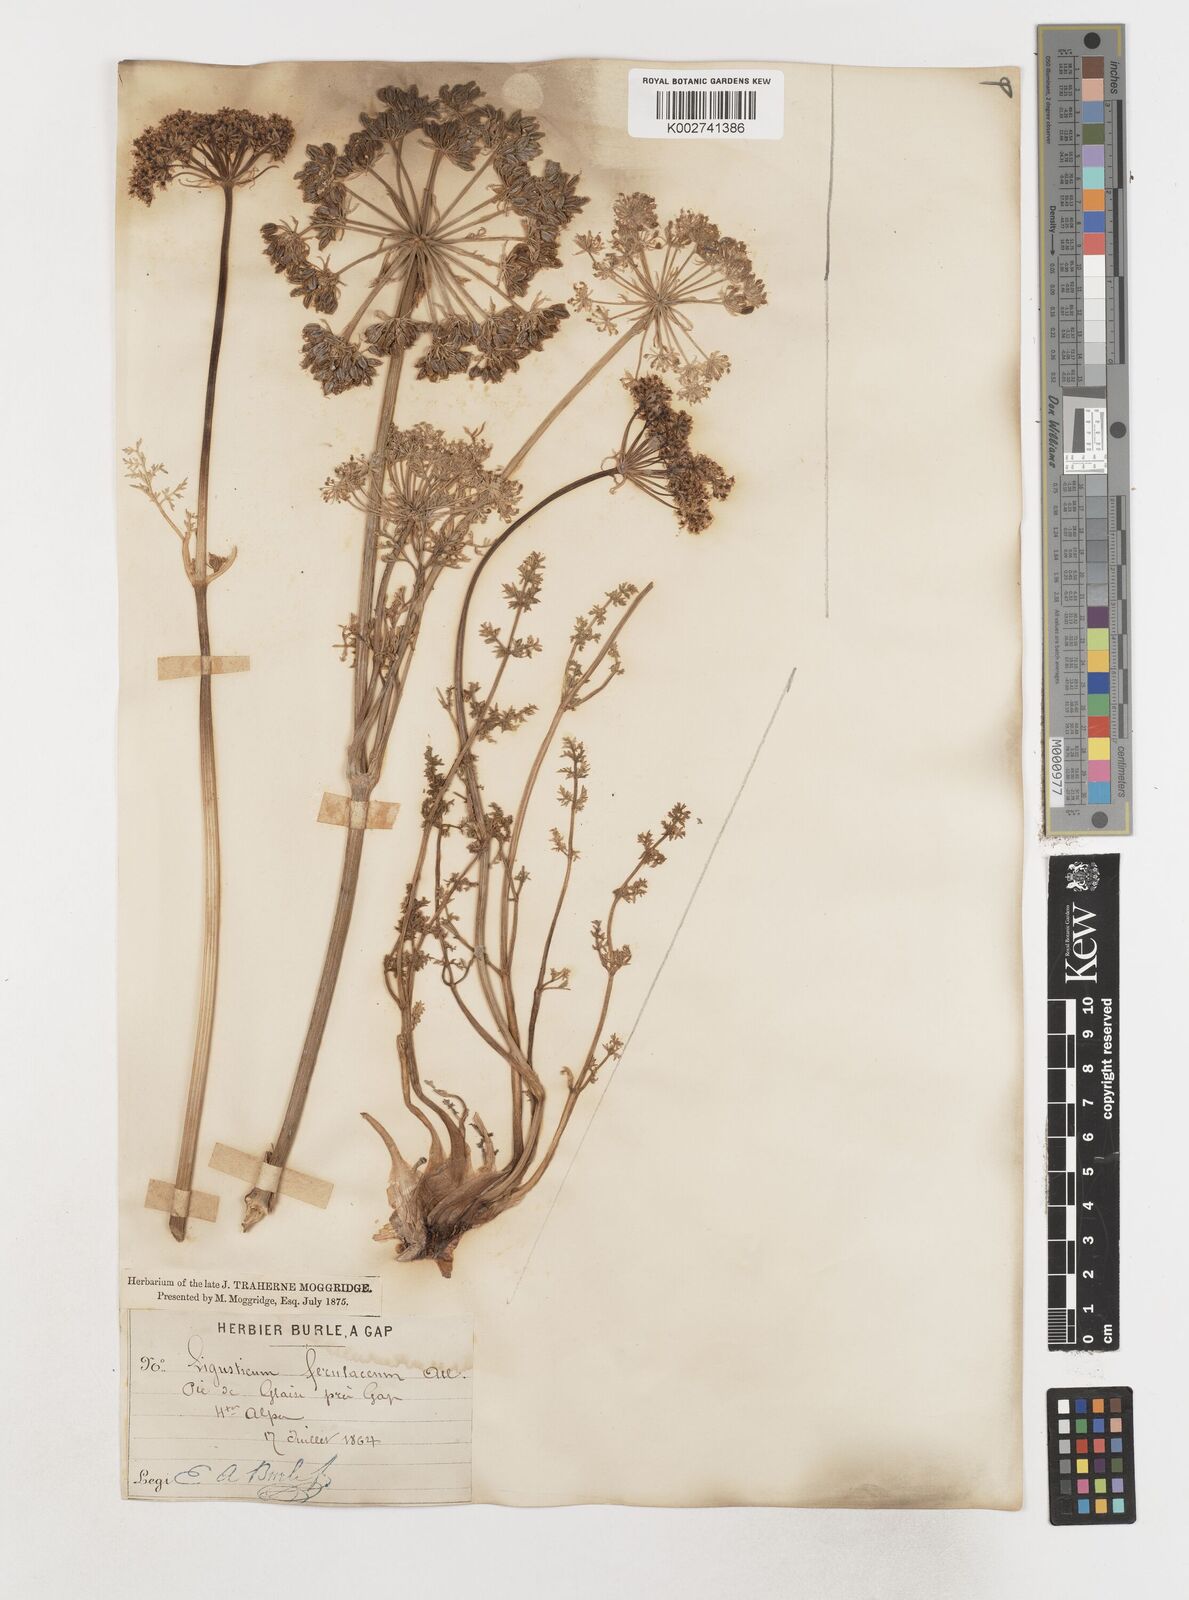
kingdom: Plantae
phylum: Tracheophyta
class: Magnoliopsida
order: Apiales
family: Apiaceae
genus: Coristospermum
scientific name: Coristospermum ferulaceum
